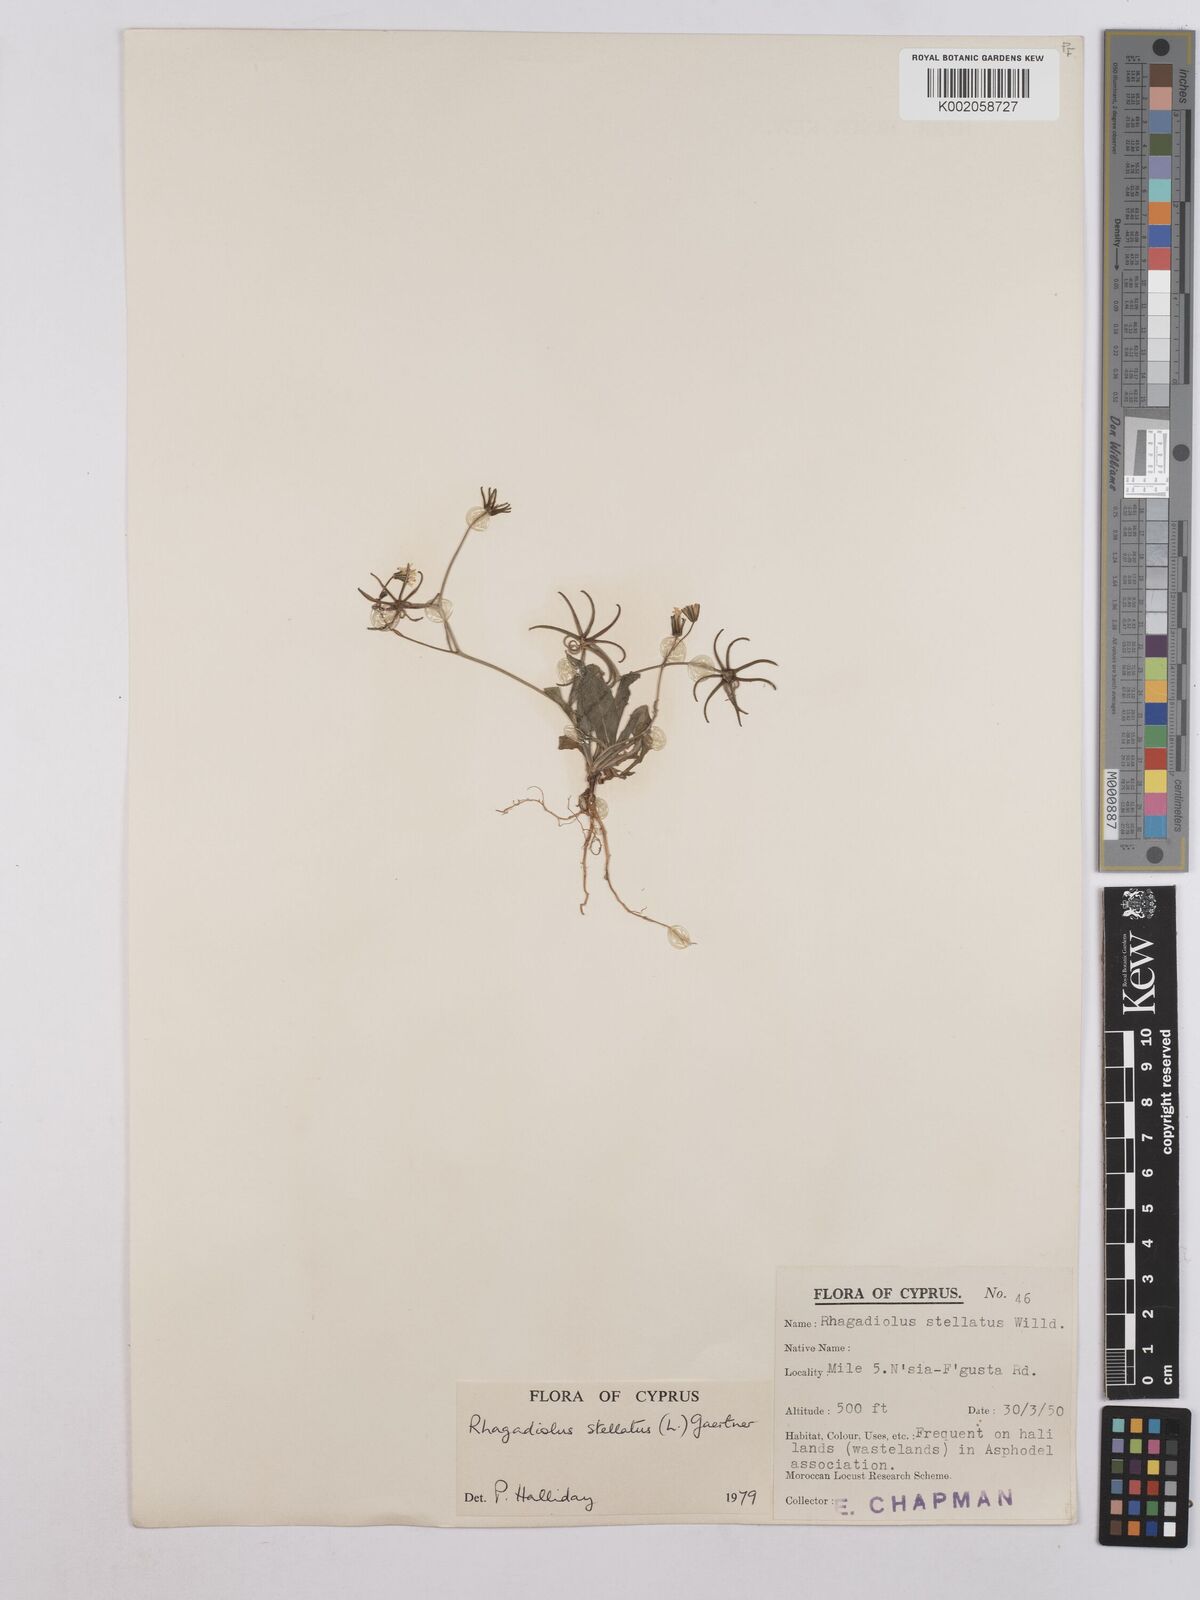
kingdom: Plantae
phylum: Tracheophyta
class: Magnoliopsida
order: Asterales
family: Asteraceae
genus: Rhagadiolus
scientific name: Rhagadiolus stellatus
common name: Star hawkbit
